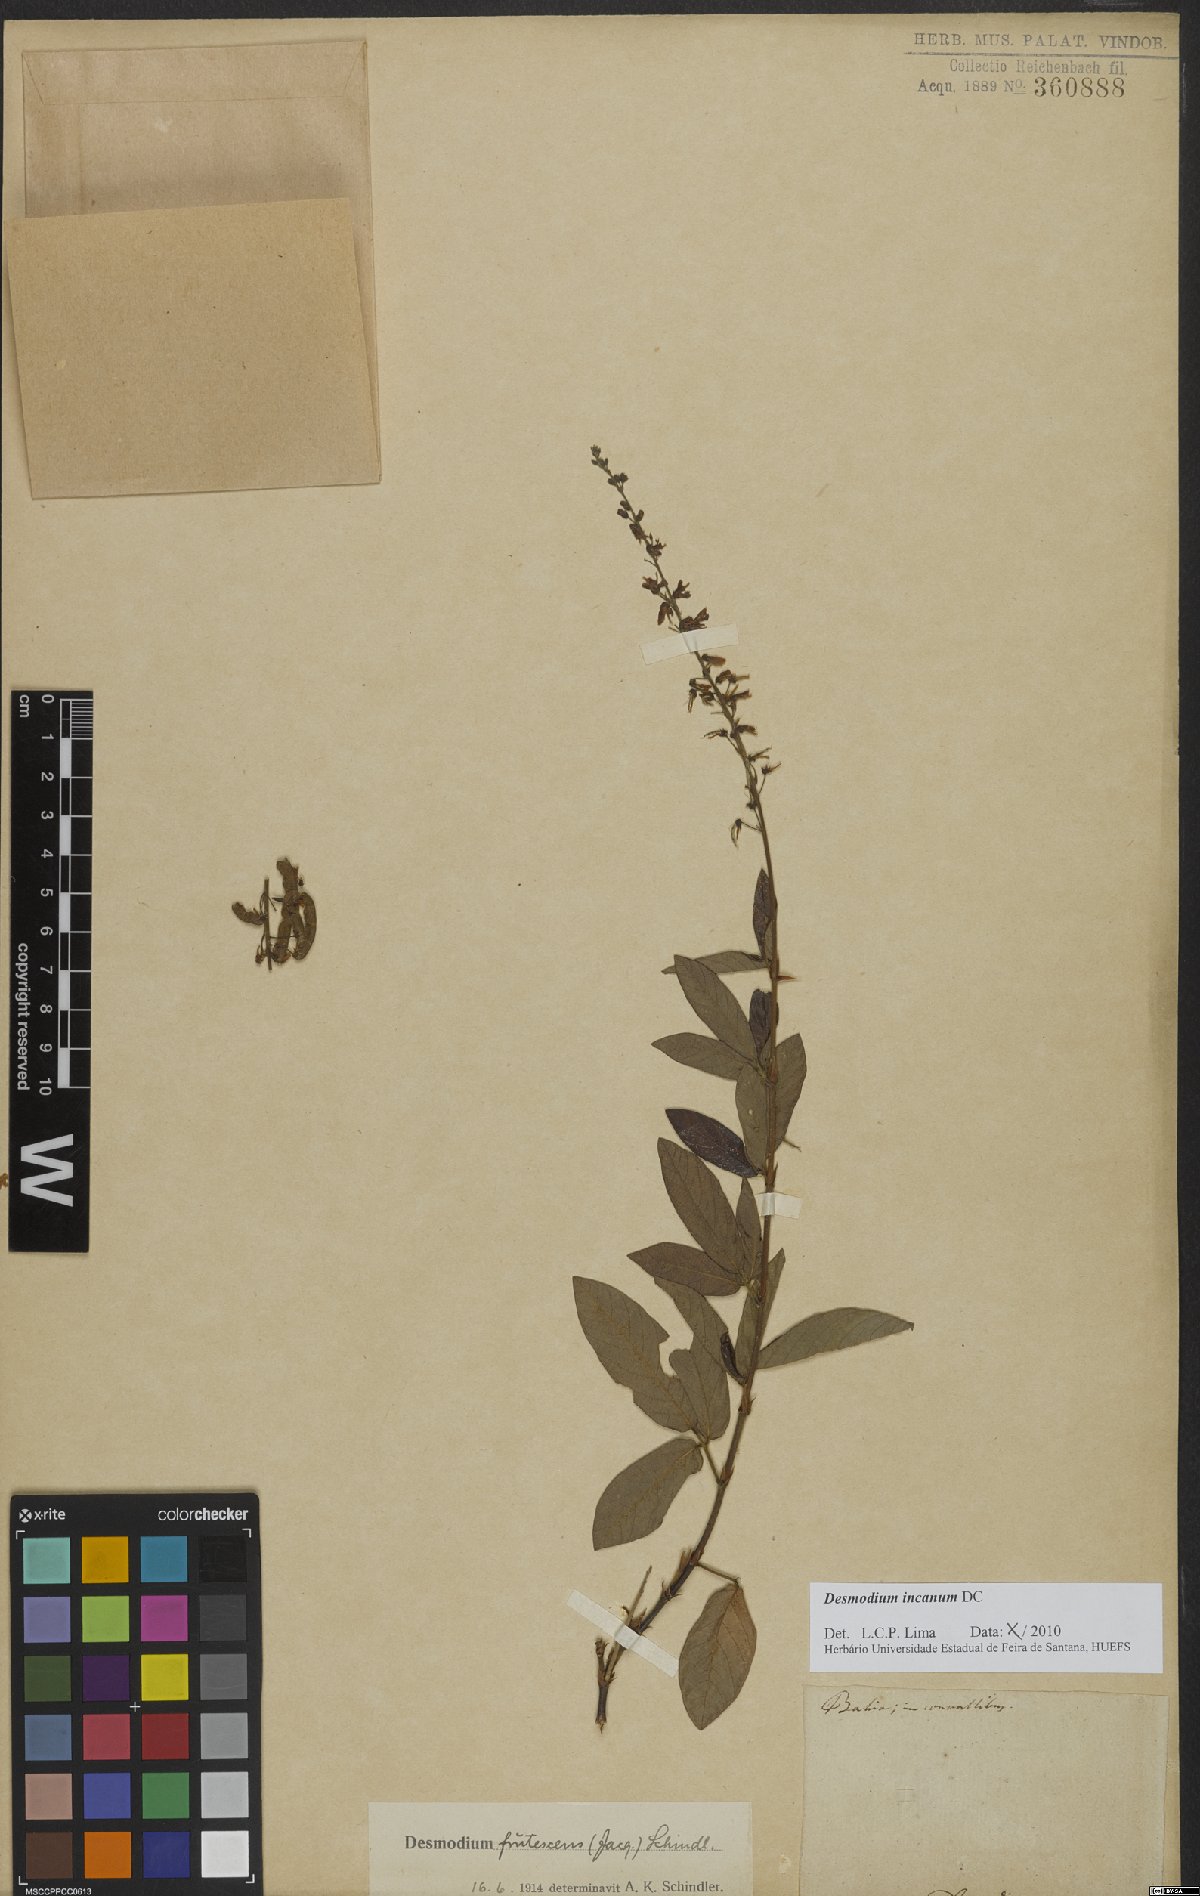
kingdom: Plantae
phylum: Tracheophyta
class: Magnoliopsida
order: Fabales
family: Fabaceae
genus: Desmodium
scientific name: Desmodium incanum
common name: Tickclover
